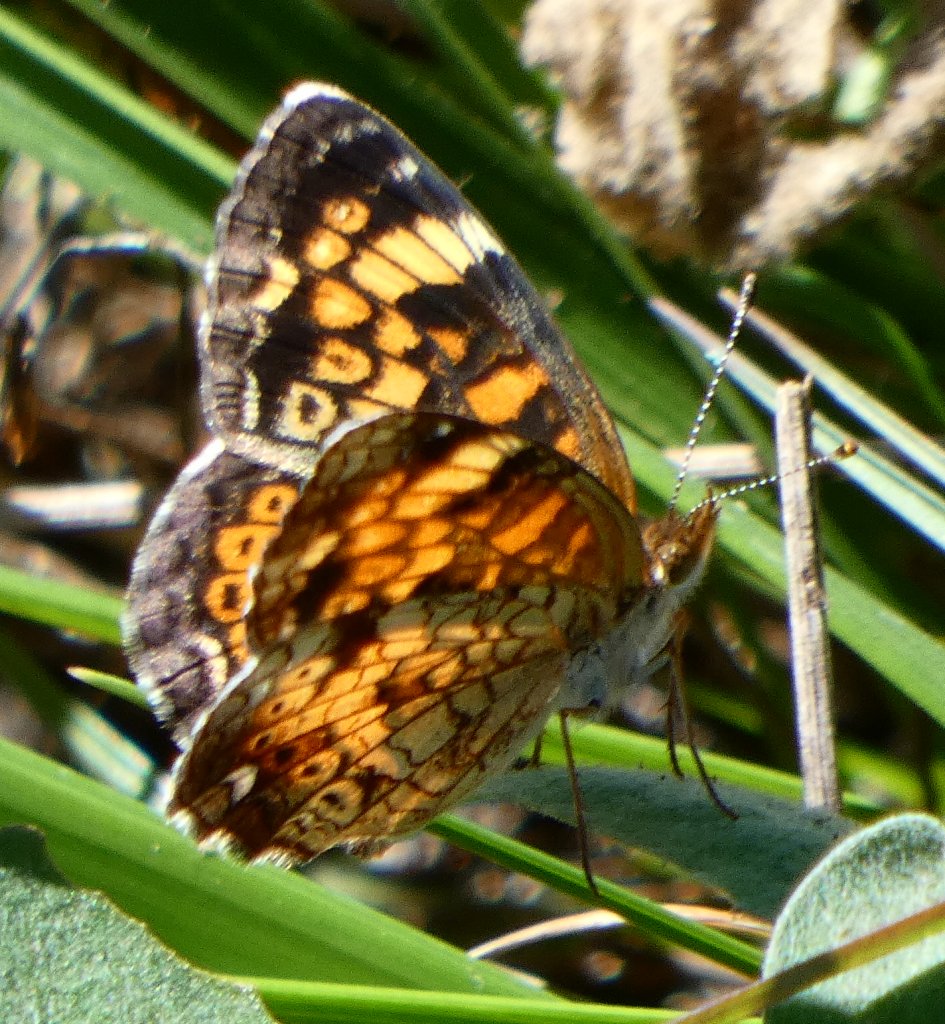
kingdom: Animalia
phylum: Arthropoda
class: Insecta
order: Lepidoptera
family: Nymphalidae
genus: Phyciodes
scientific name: Phyciodes tharos
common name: Pearl Crescent
